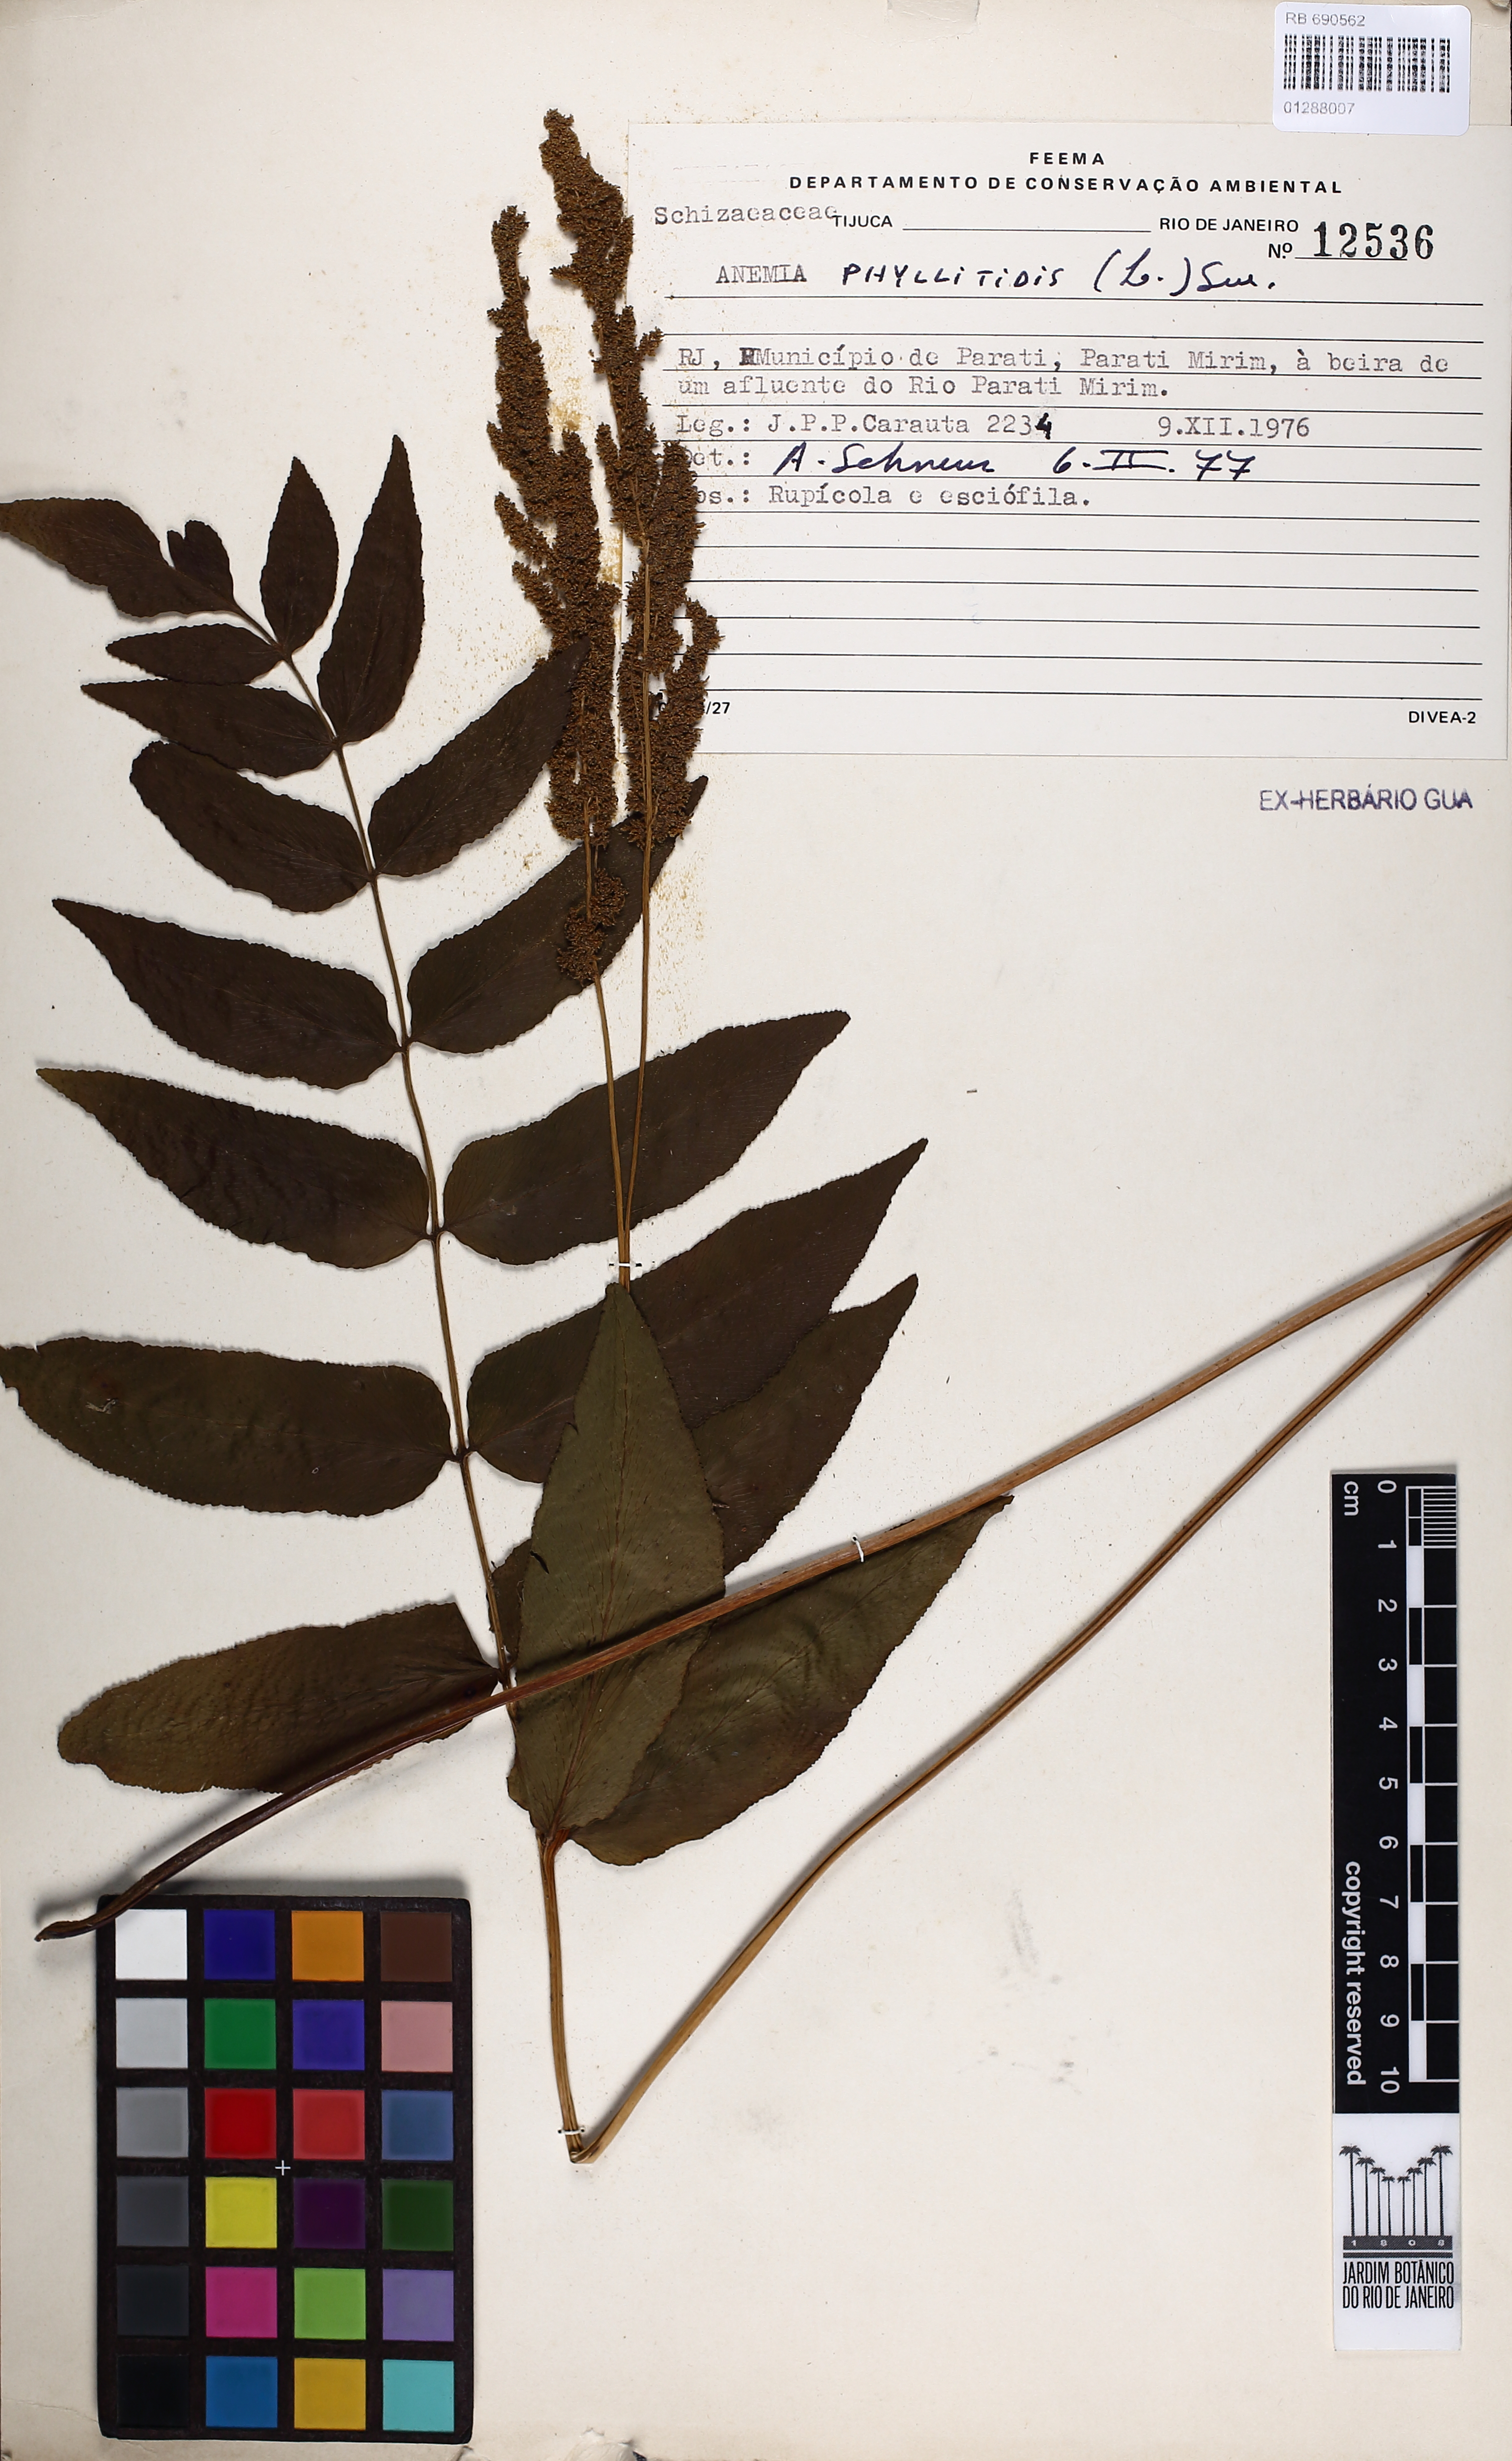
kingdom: Plantae
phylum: Tracheophyta
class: Polypodiopsida
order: Schizaeales
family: Anemiaceae
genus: Anemia
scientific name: Anemia phyllitidis
